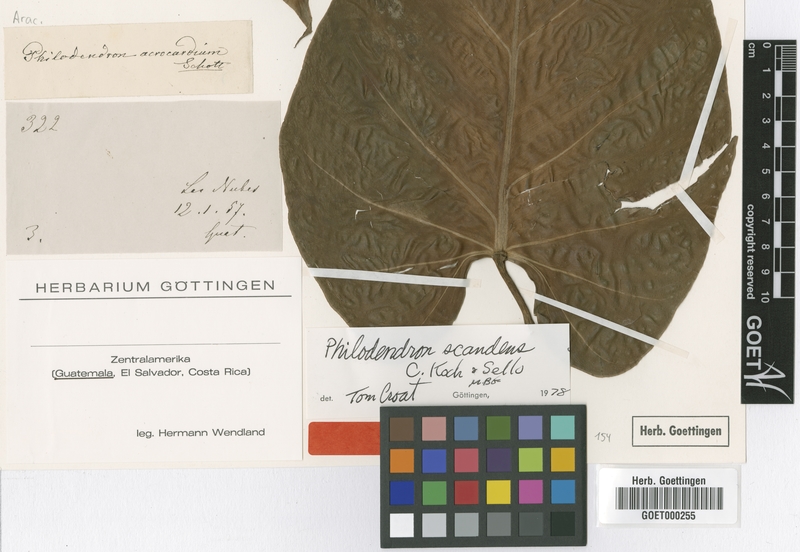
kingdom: Plantae
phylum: Tracheophyta
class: Liliopsida
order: Alismatales
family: Araceae
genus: Philodendron
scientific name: Philodendron hederaceum
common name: Vilevine
